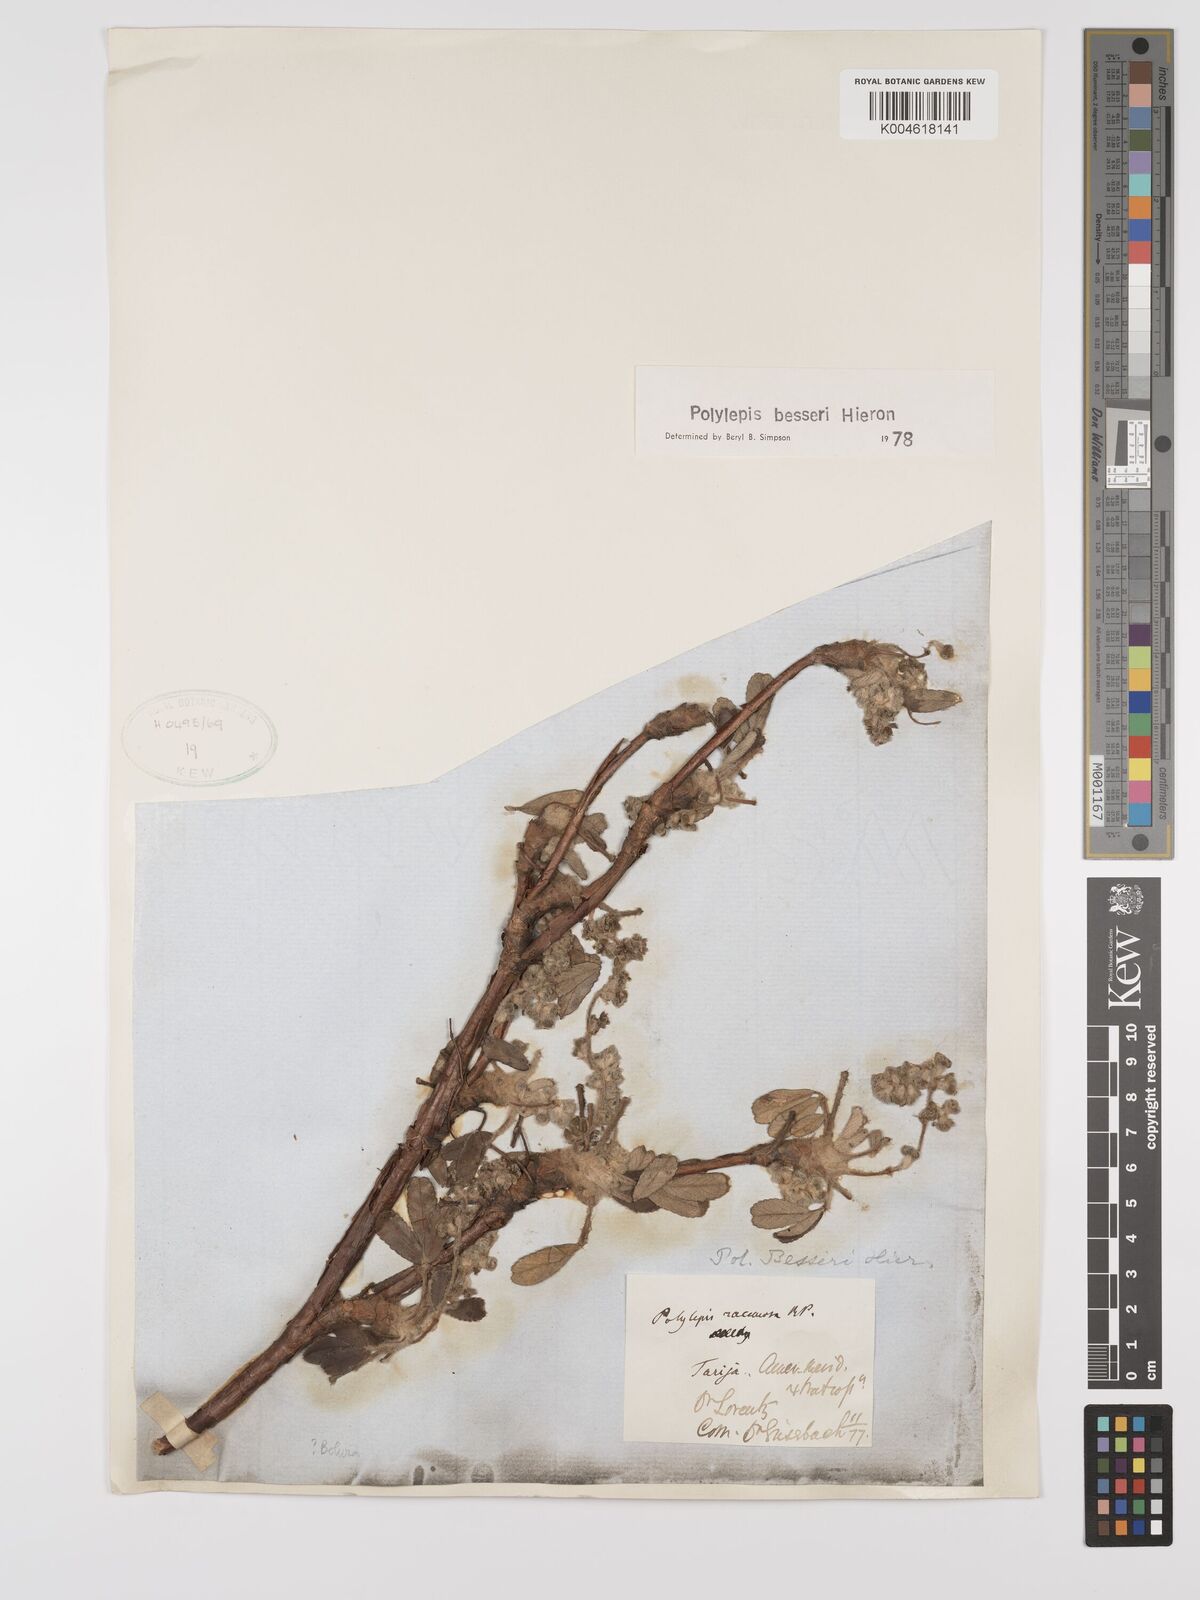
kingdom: Plantae
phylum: Tracheophyta
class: Magnoliopsida
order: Rosales
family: Rosaceae
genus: Polylepis
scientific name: Polylepis
